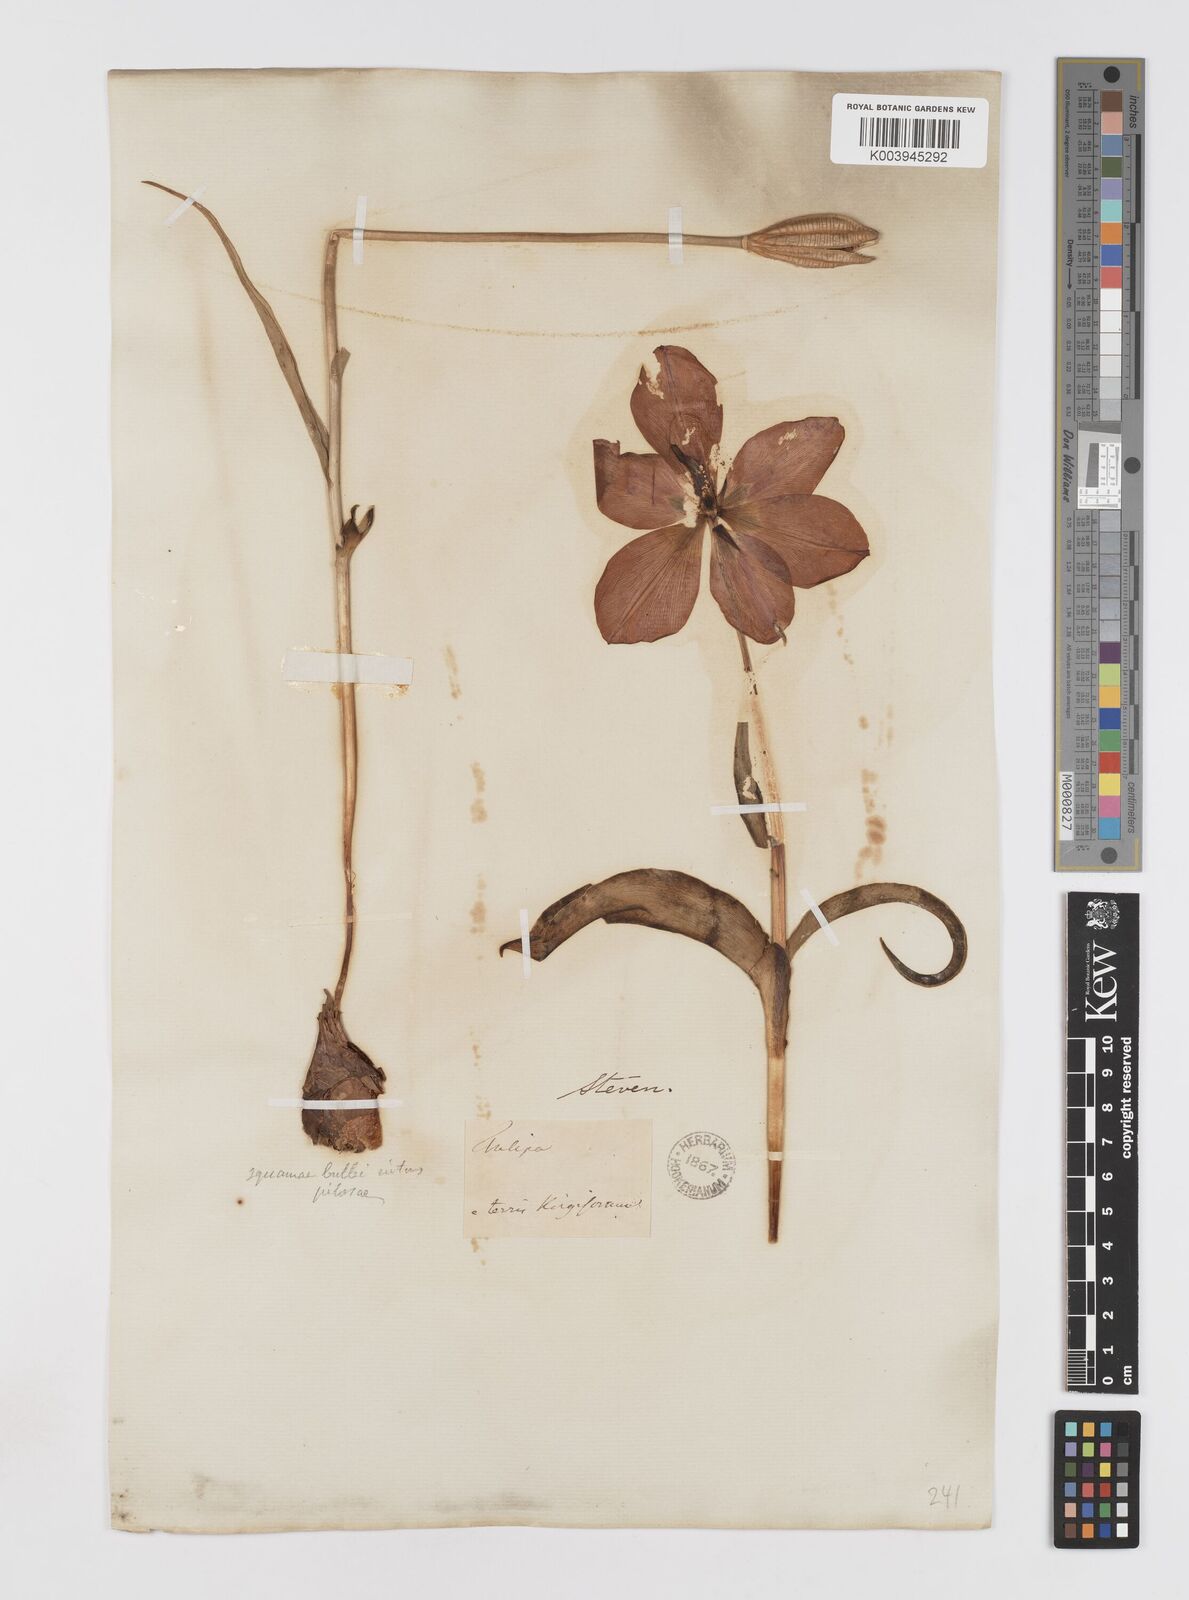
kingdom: Plantae
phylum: Tracheophyta
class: Liliopsida
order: Liliales
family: Liliaceae
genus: Tulipa
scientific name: Tulipa gesneriana
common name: Garden tulip
